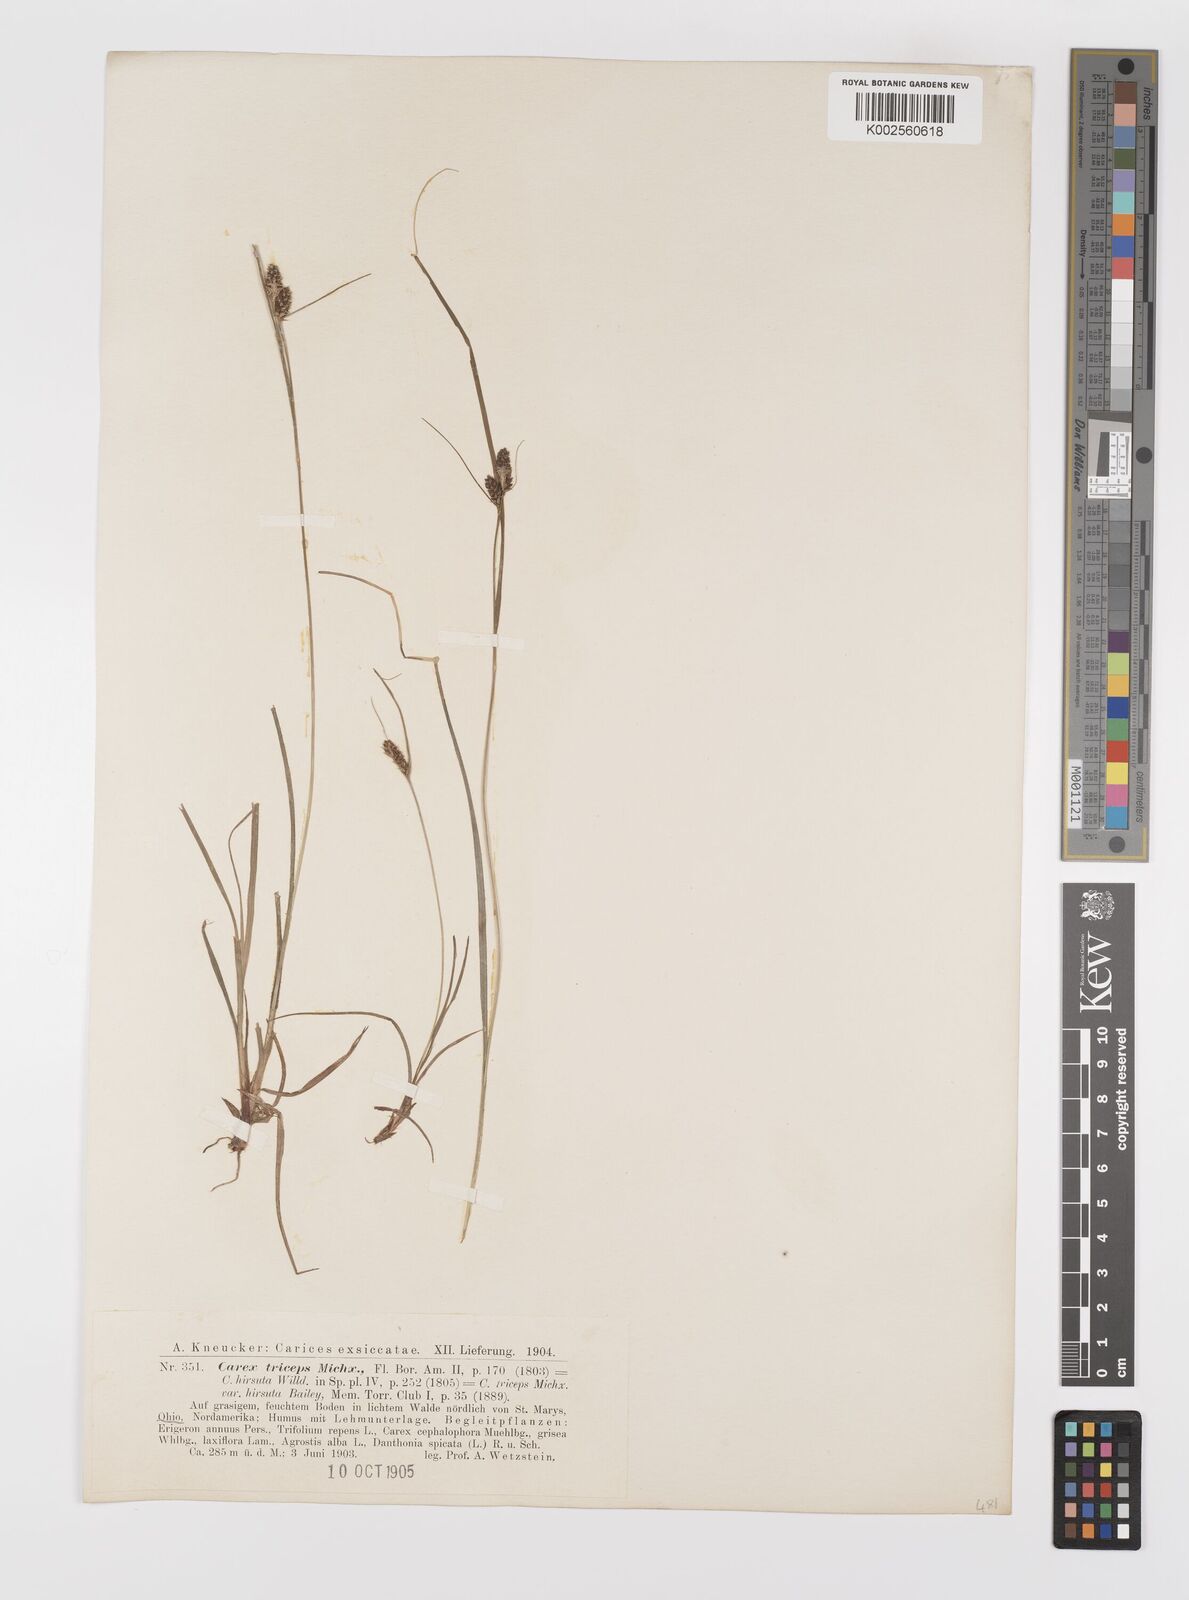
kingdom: Plantae
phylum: Tracheophyta
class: Liliopsida
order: Poales
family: Cyperaceae
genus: Carex
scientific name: Carex complanata
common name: Hirsute sedge
